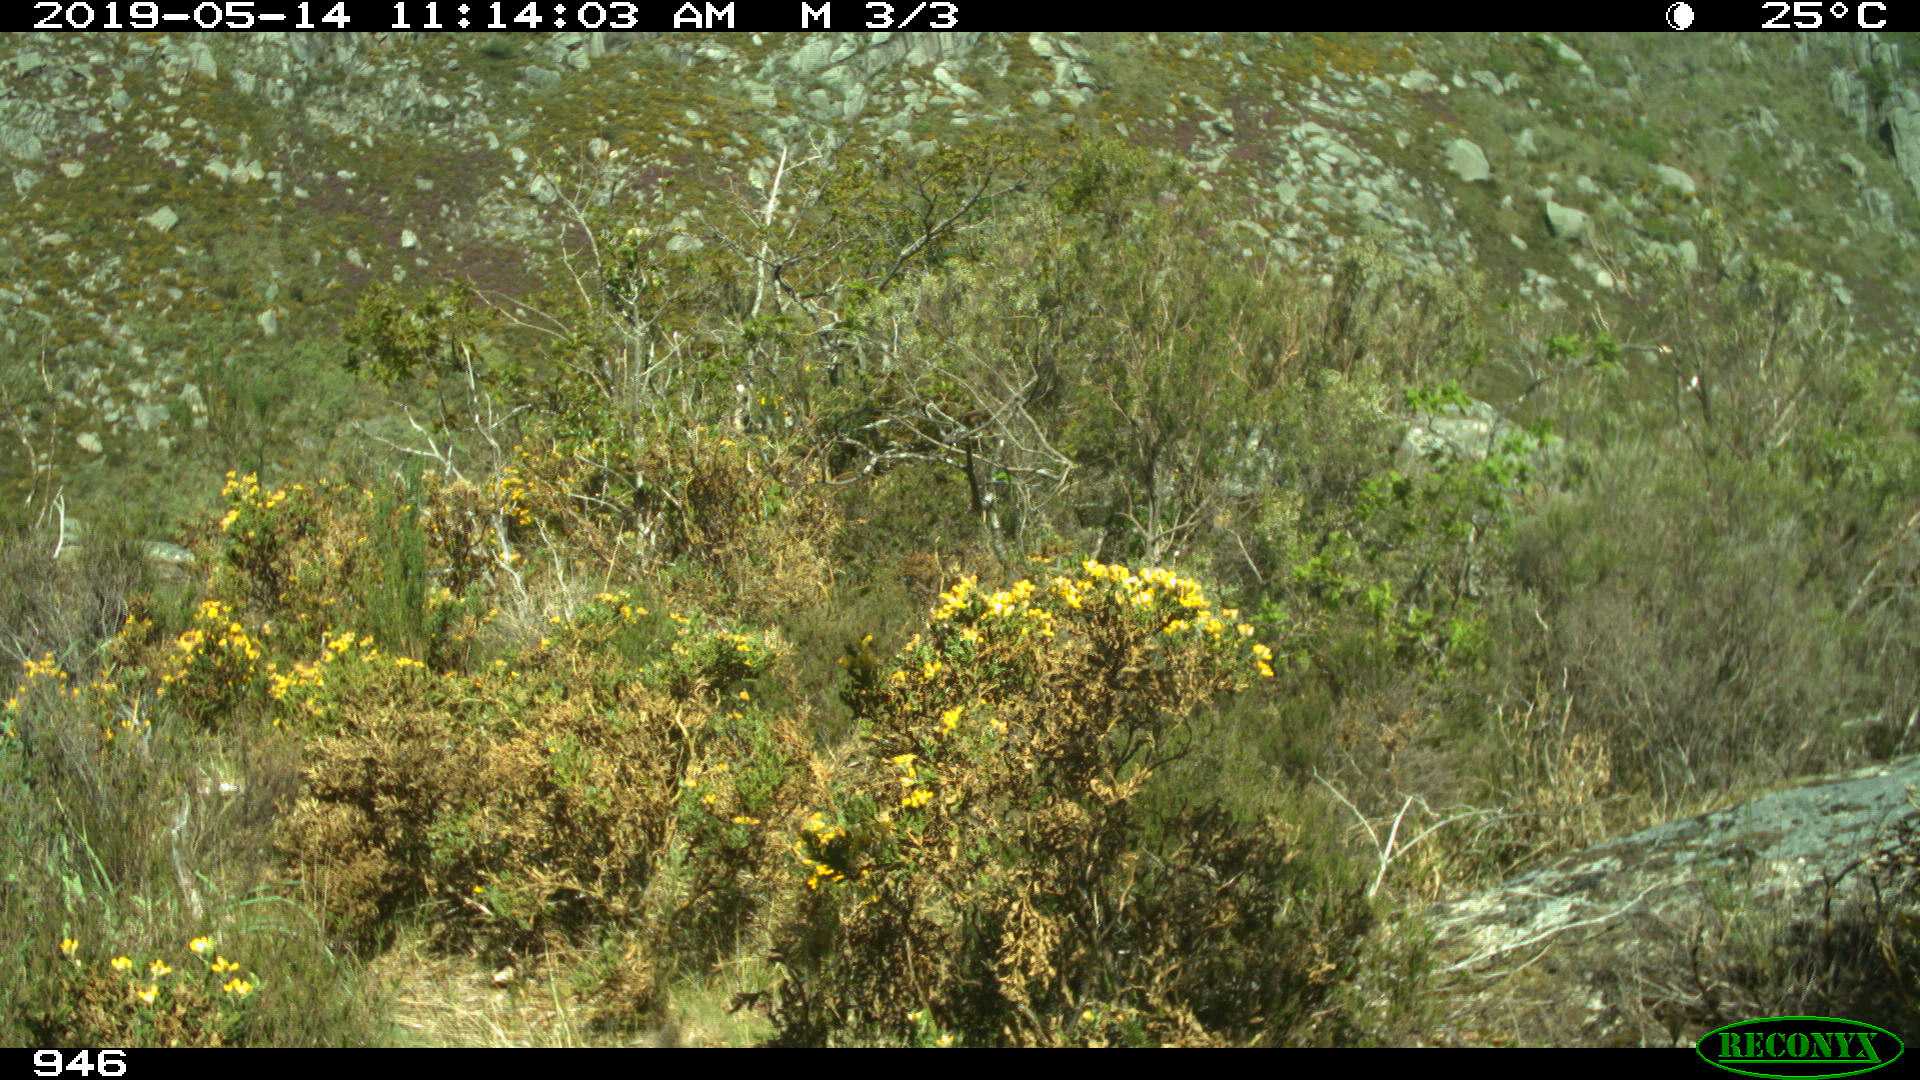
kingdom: Animalia
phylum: Chordata
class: Mammalia
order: Carnivora
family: Canidae
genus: Vulpes
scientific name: Vulpes vulpes
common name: Red fox
